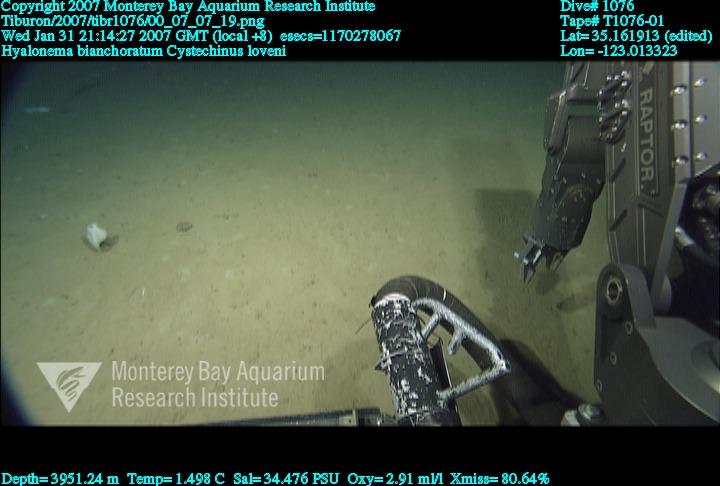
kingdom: Animalia
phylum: Porifera
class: Hexactinellida
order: Amphidiscosida
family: Hyalonematidae
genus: Hyalonema
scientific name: Hyalonema bianchoratum
